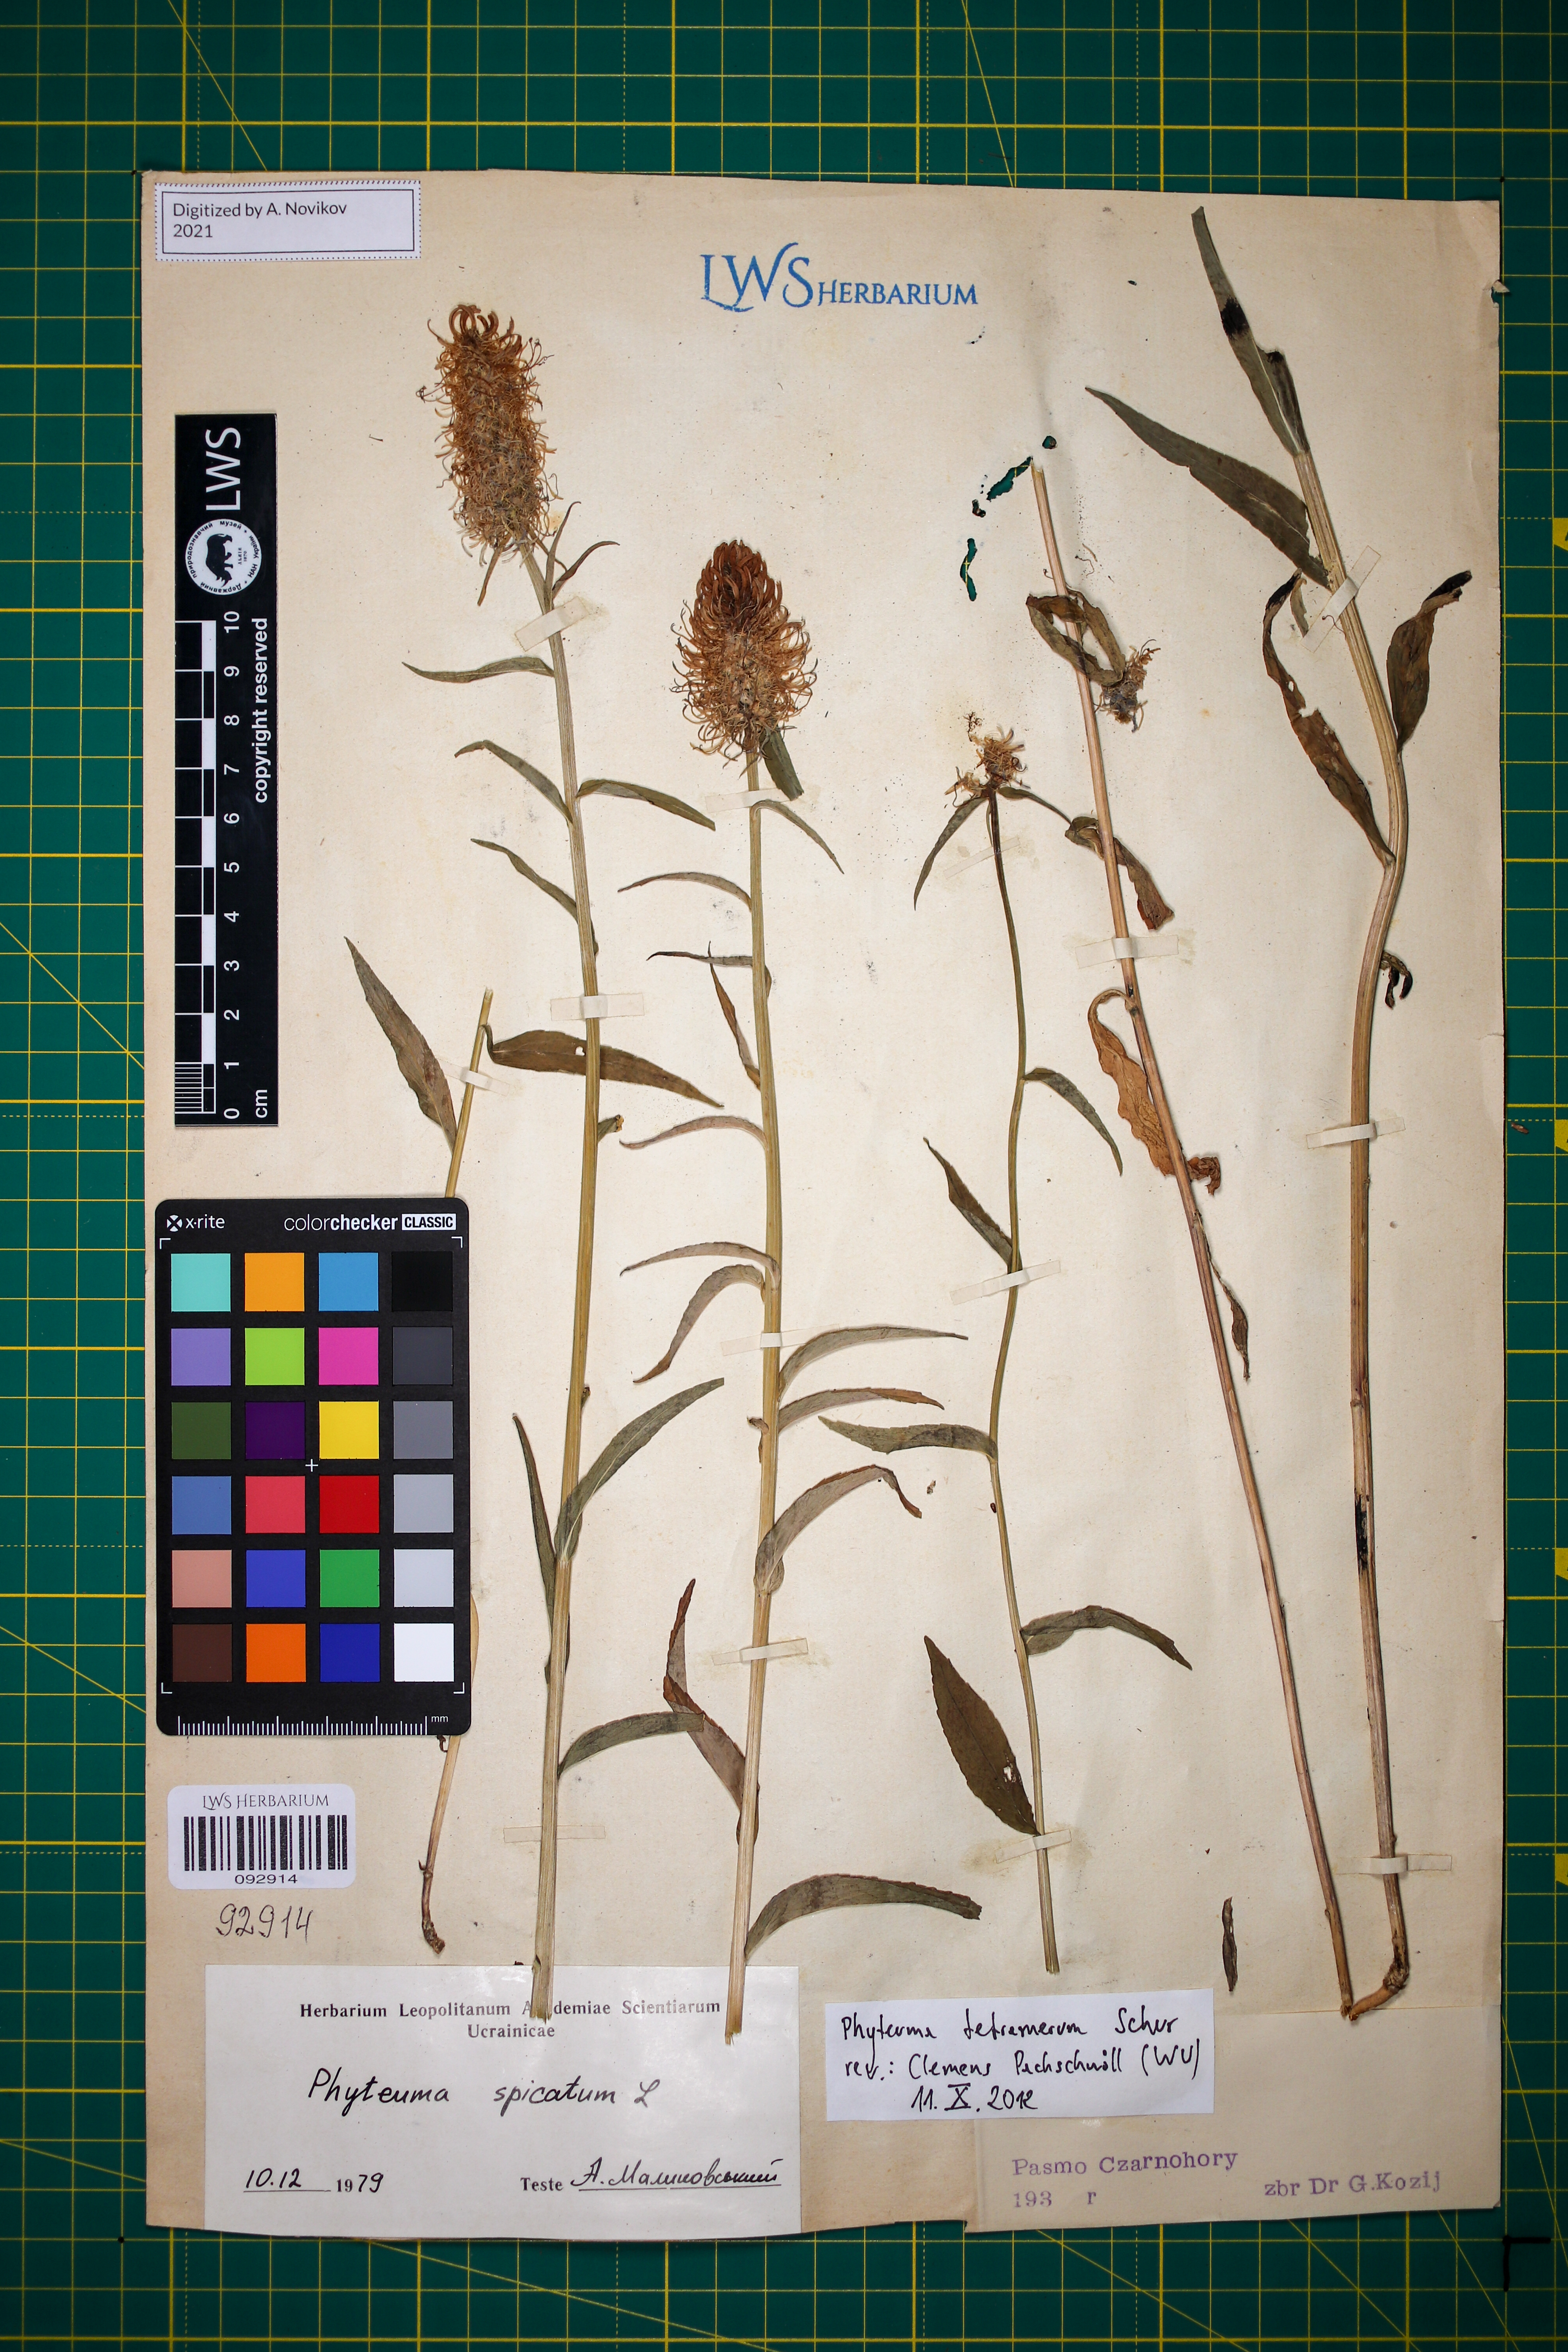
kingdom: Plantae
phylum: Tracheophyta
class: Magnoliopsida
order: Asterales
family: Campanulaceae
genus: Phyteuma
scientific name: Phyteuma tetramerum
